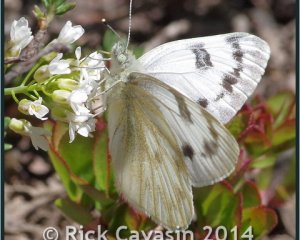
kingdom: Animalia
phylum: Arthropoda
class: Insecta
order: Lepidoptera
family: Pieridae
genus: Pontia
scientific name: Pontia protodice
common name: Checkered White
